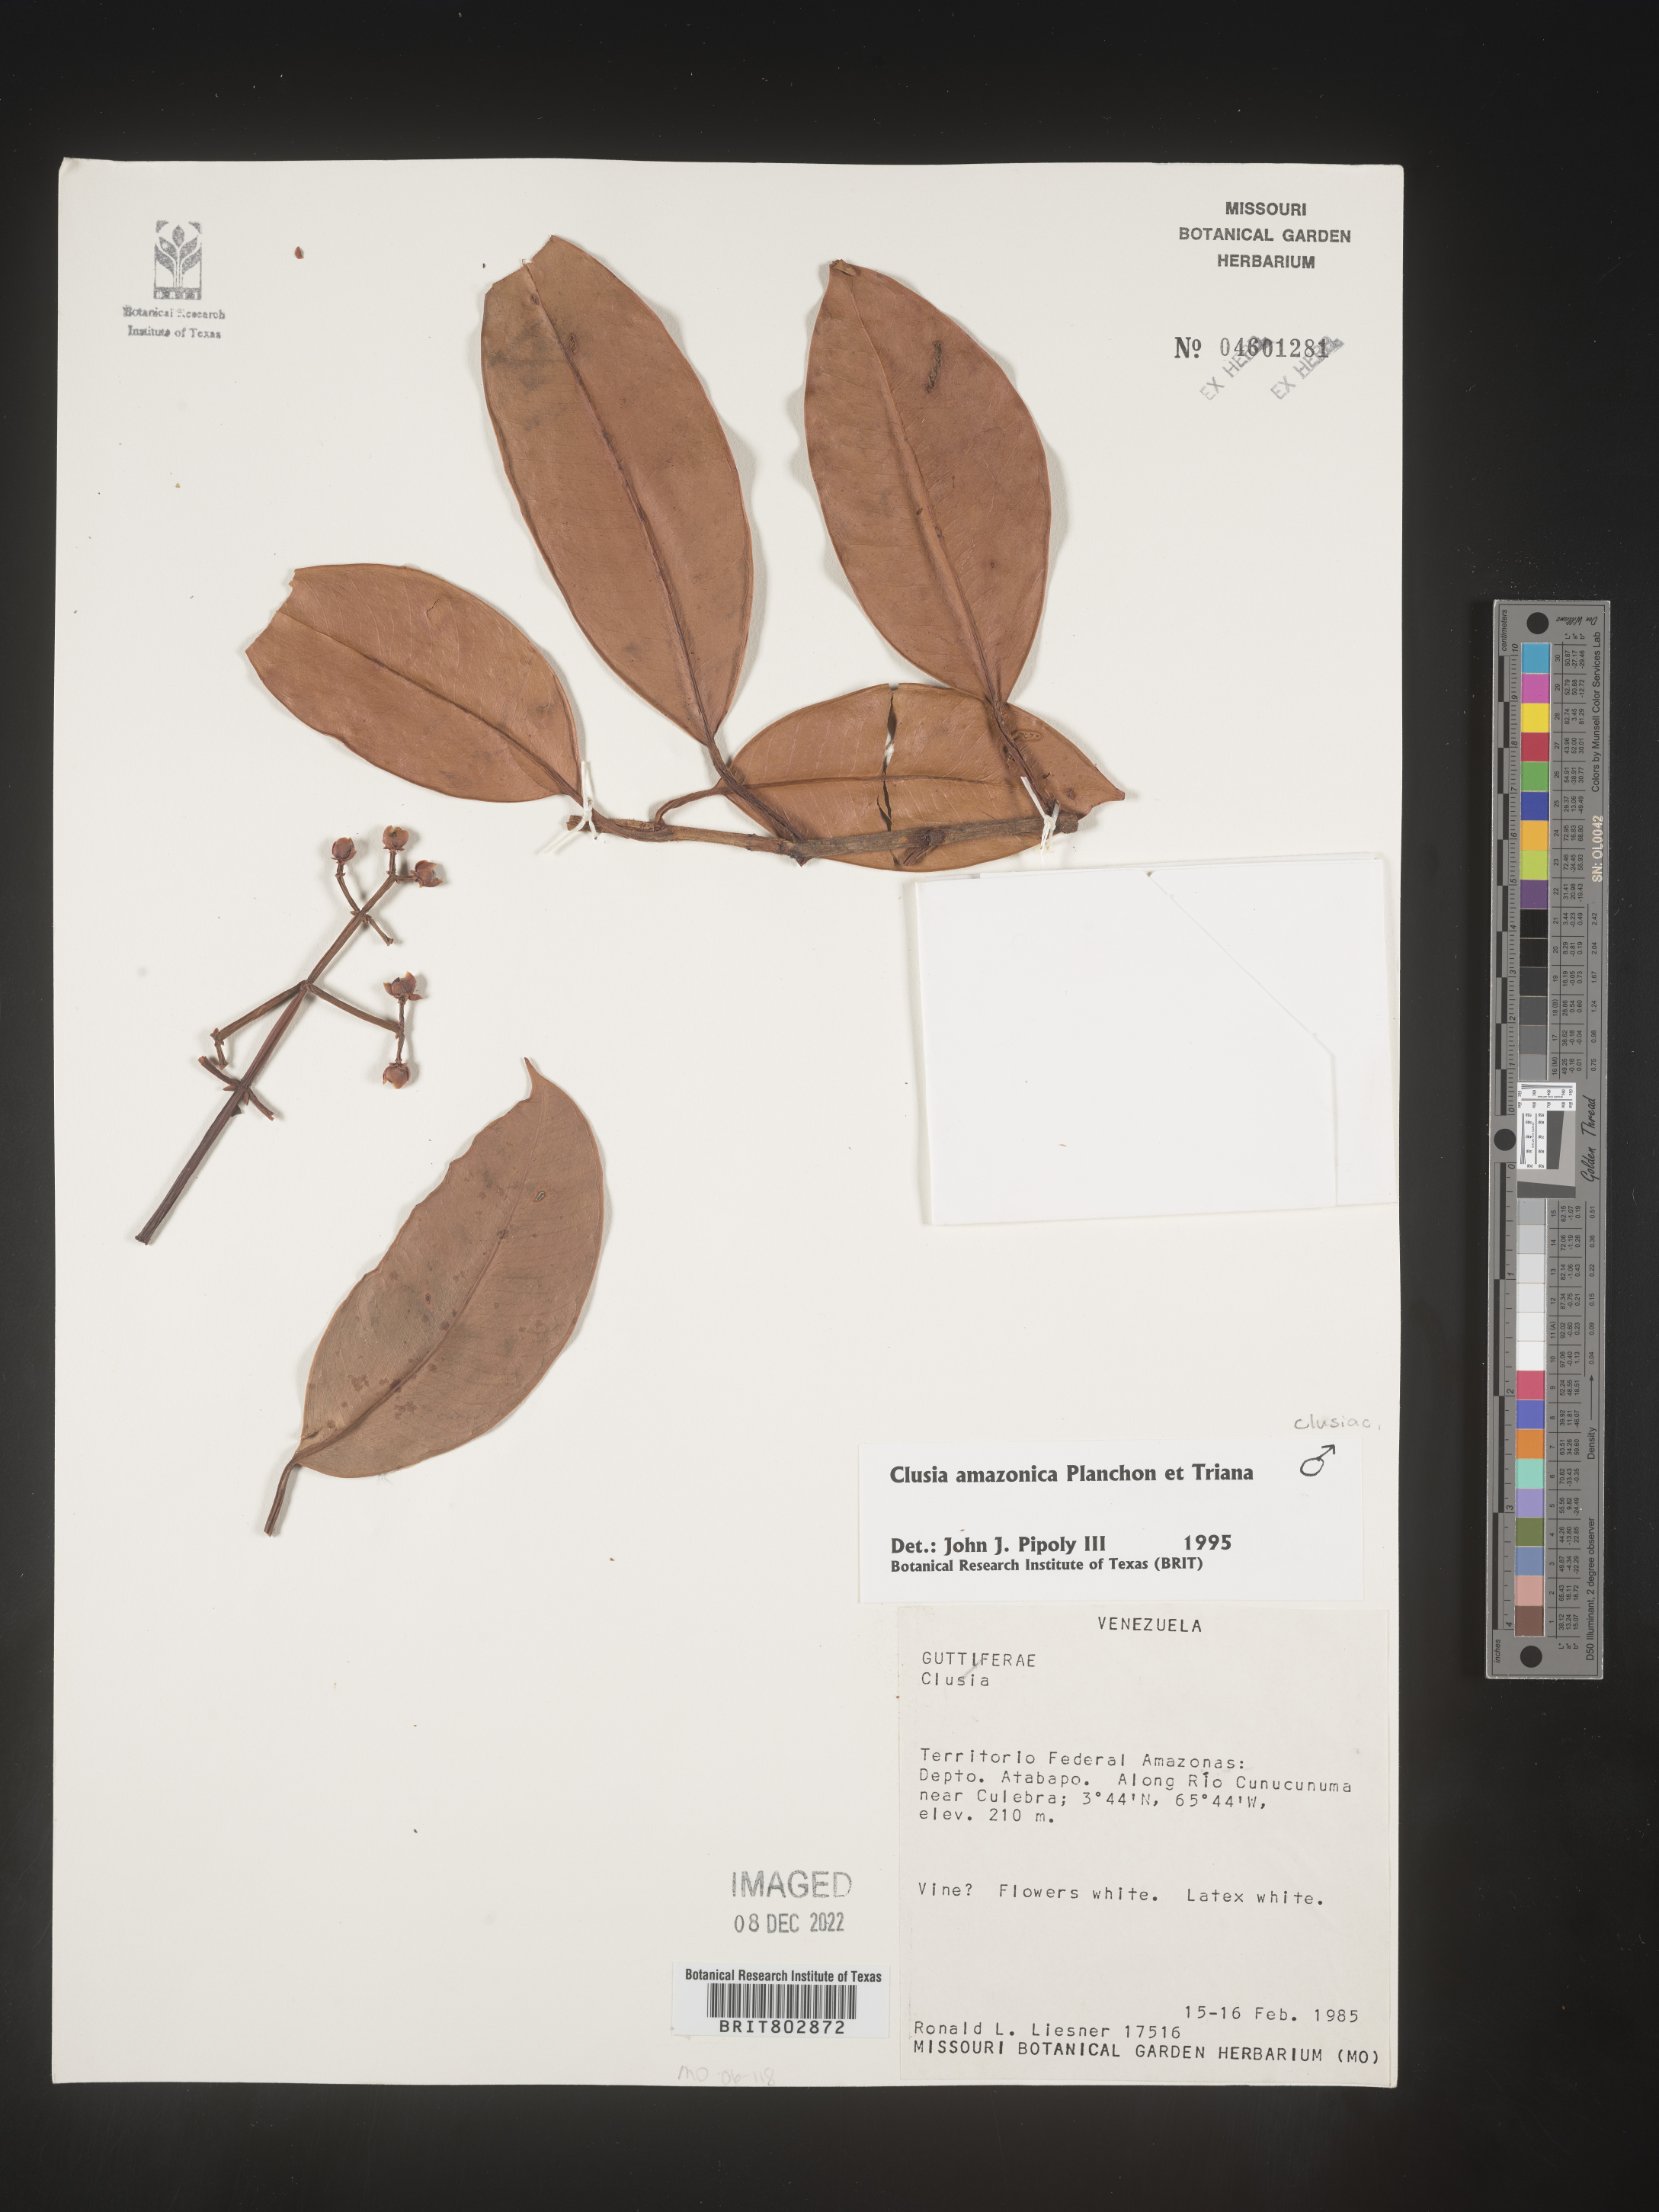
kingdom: Plantae
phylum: Tracheophyta
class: Magnoliopsida
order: Malpighiales
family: Clusiaceae
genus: Clusia
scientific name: Clusia
